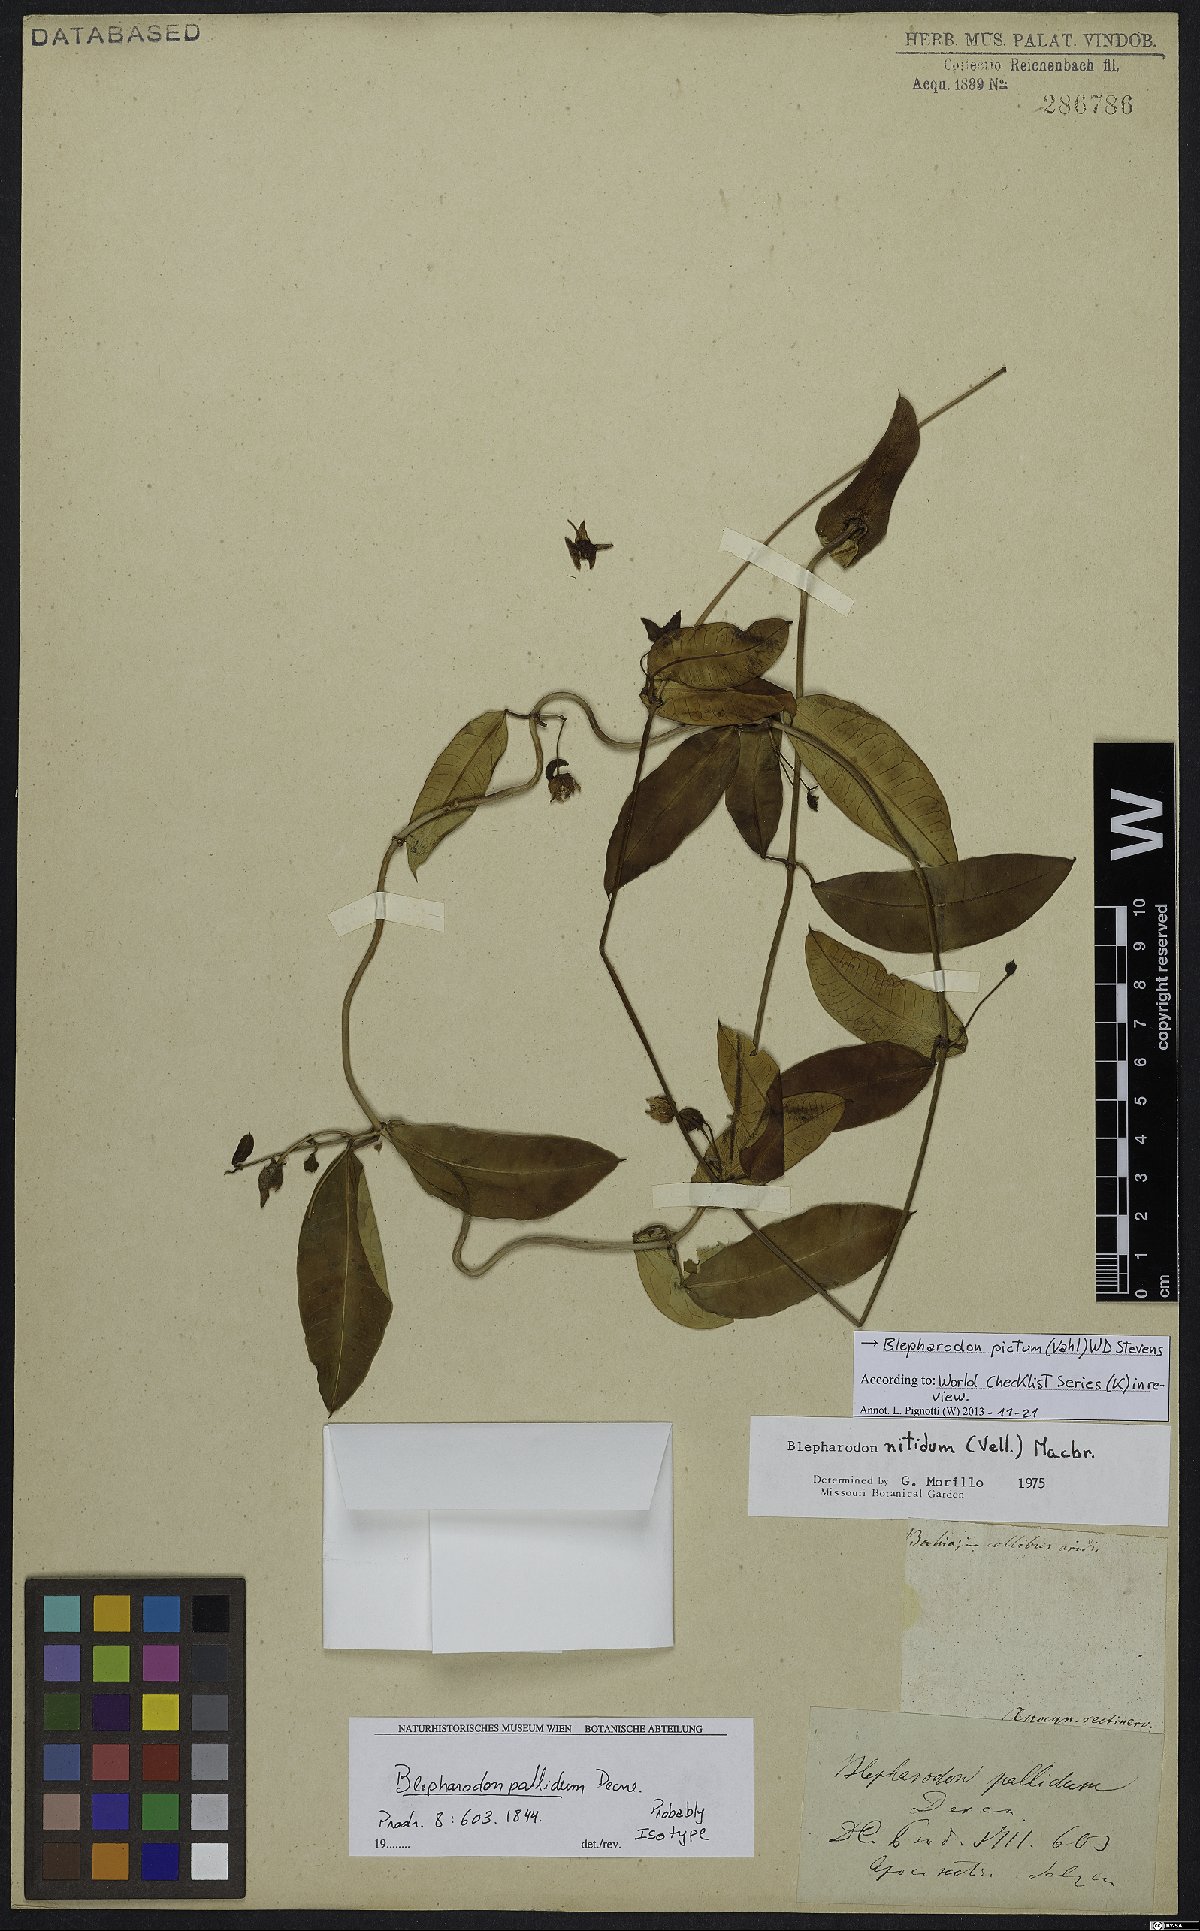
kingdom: Plantae
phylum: Tracheophyta
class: Magnoliopsida
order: Gentianales
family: Apocynaceae
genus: Blepharodon
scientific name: Blepharodon pictum
